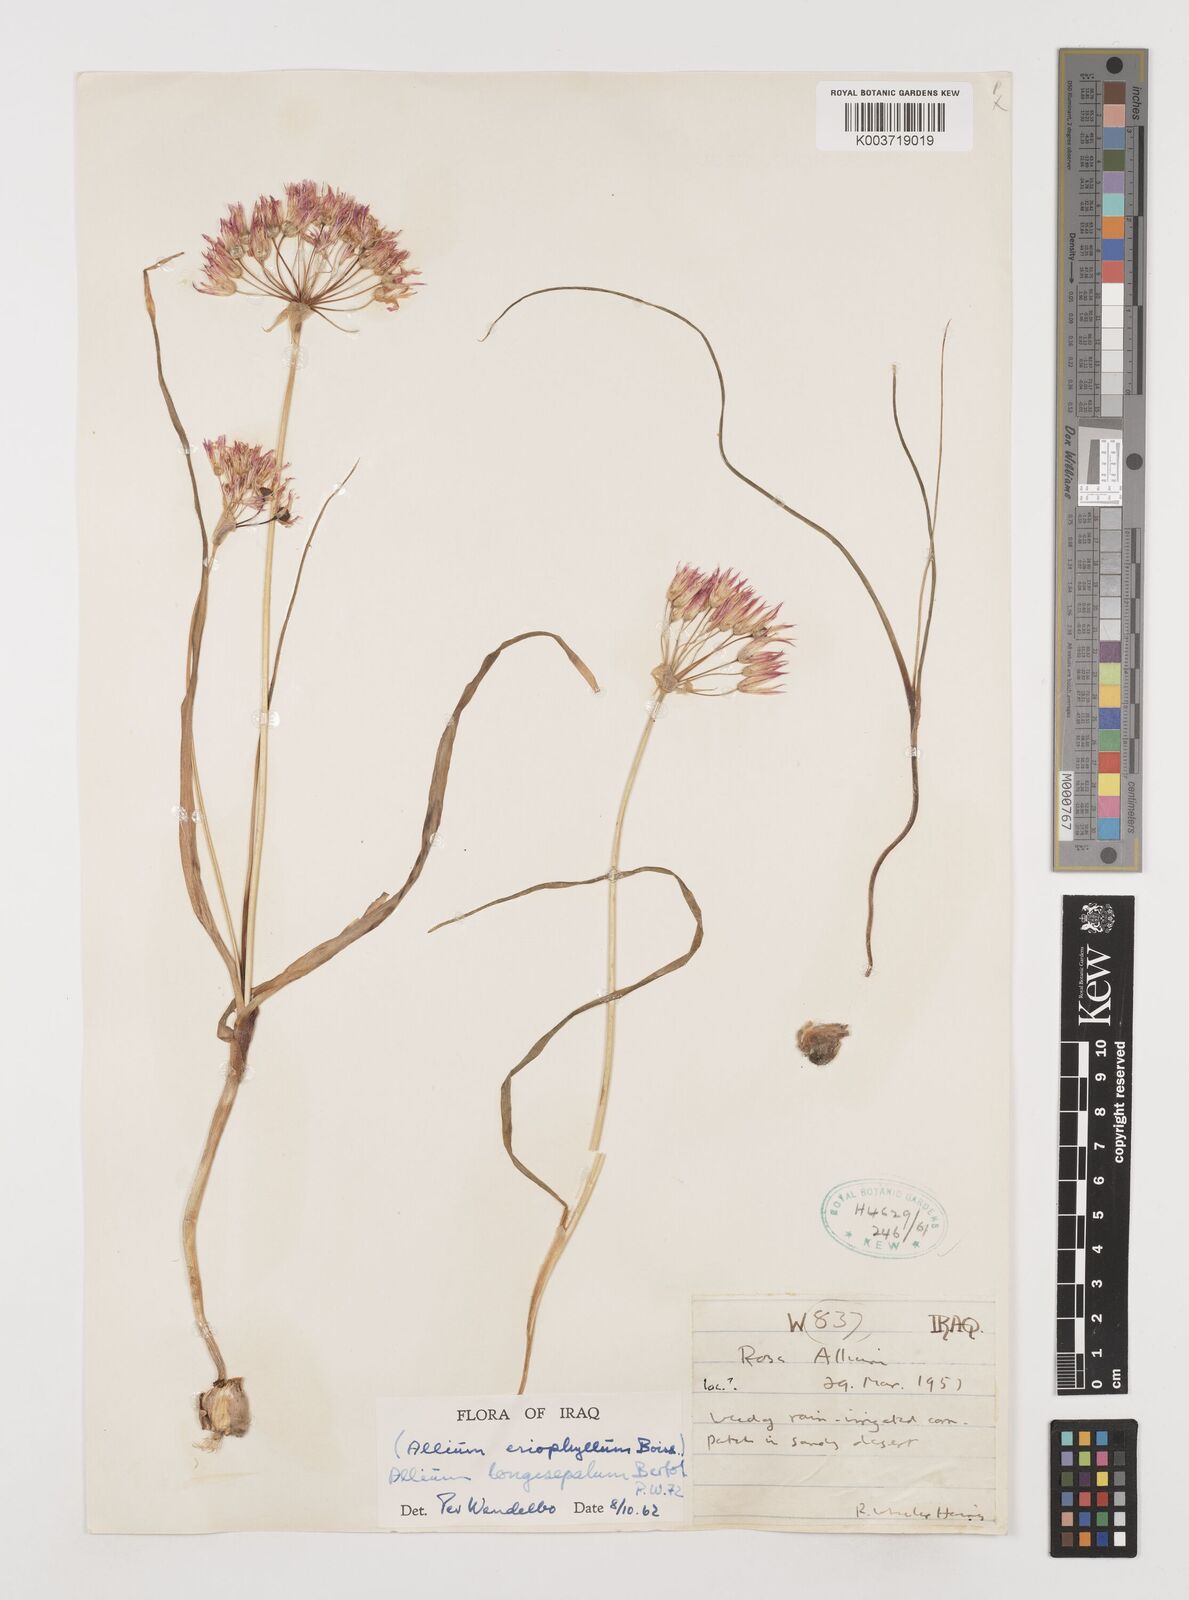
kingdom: Plantae
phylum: Tracheophyta
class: Liliopsida
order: Asparagales
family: Amaryllidaceae
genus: Allium
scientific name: Allium longisepalum
